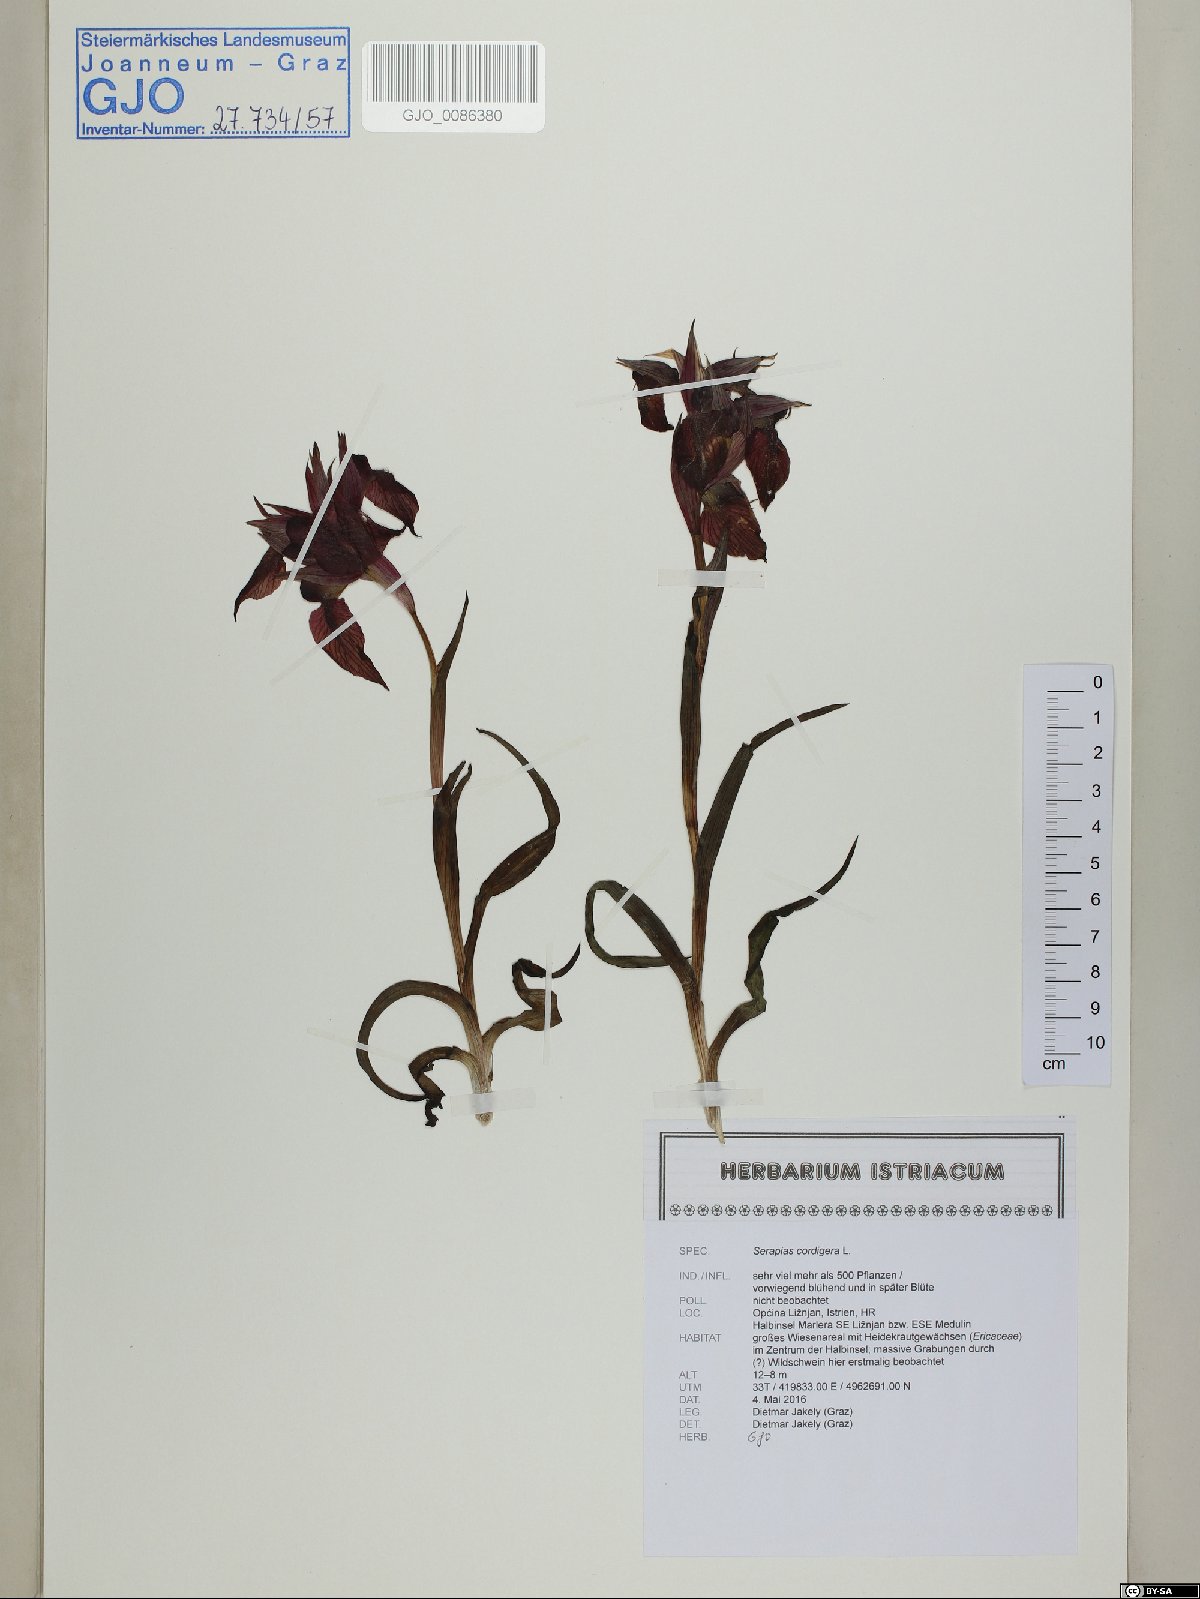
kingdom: Plantae
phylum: Tracheophyta
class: Liliopsida
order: Asparagales
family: Orchidaceae
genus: Serapias
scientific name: Serapias cordigera
